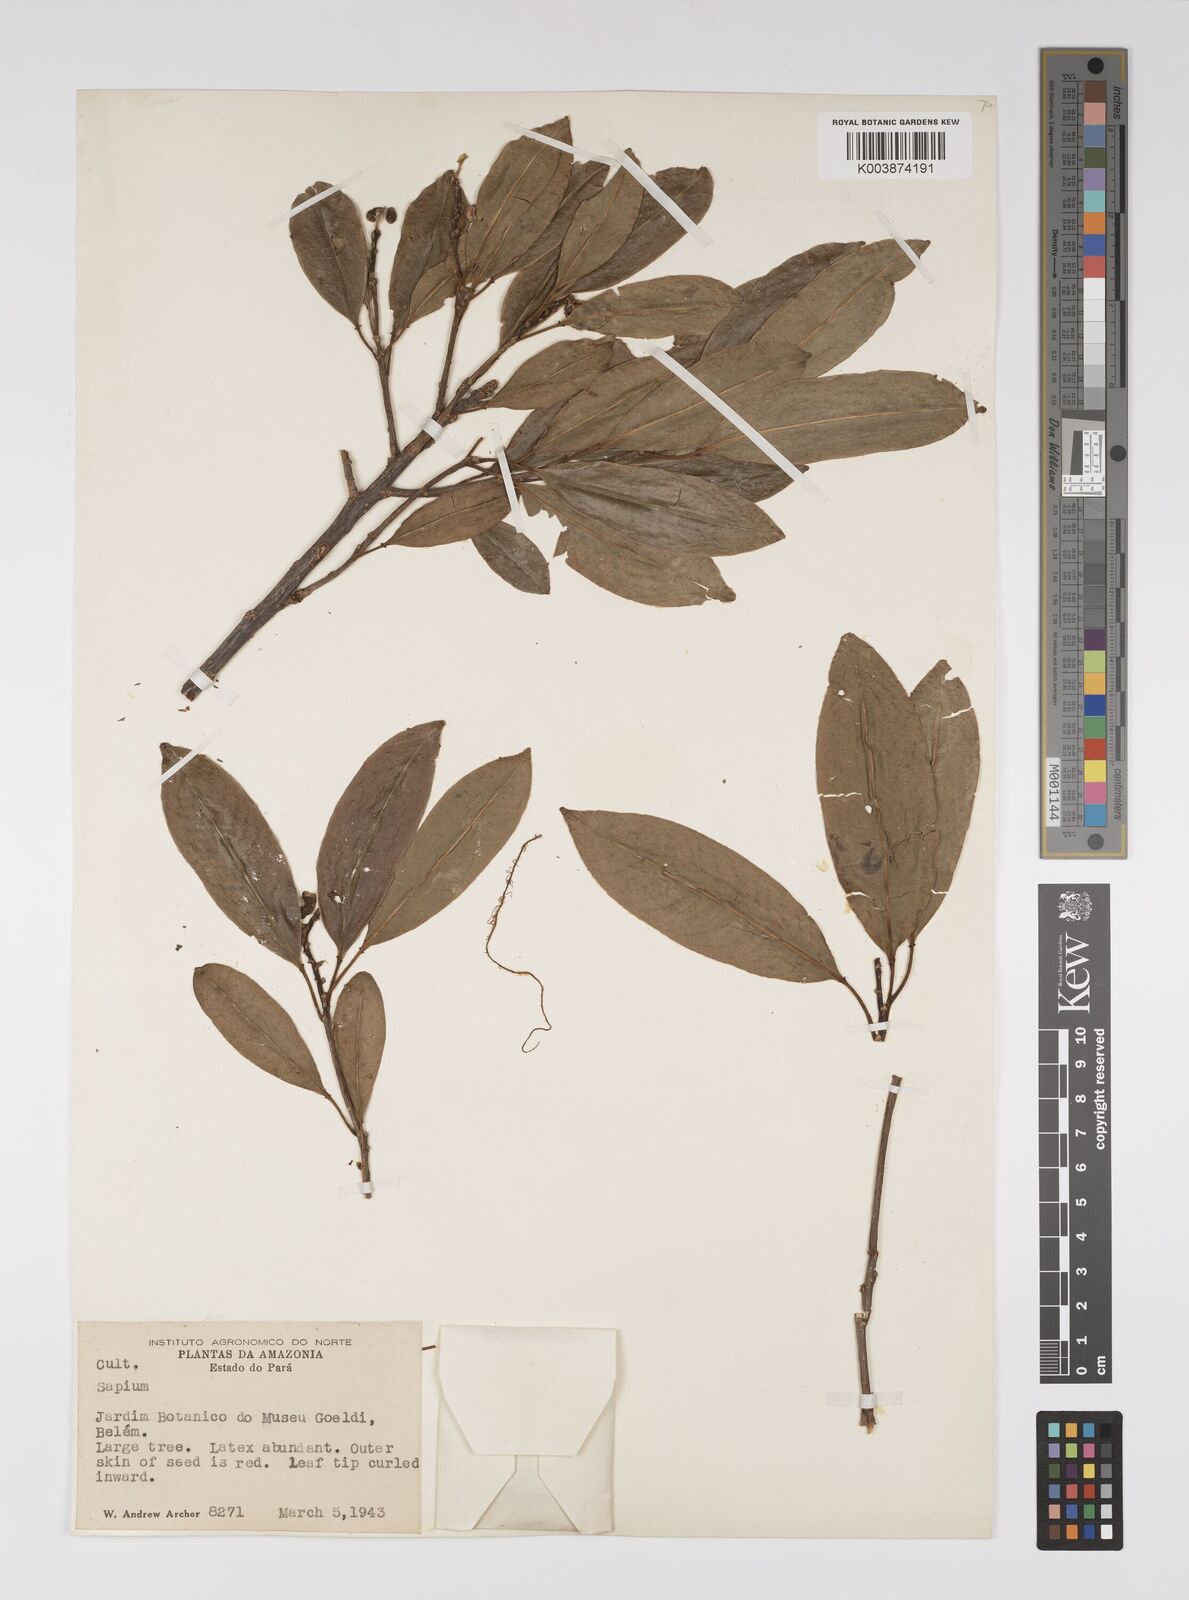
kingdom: Plantae
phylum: Tracheophyta
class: Magnoliopsida
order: Malpighiales
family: Euphorbiaceae
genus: Sapium
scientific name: Sapium
